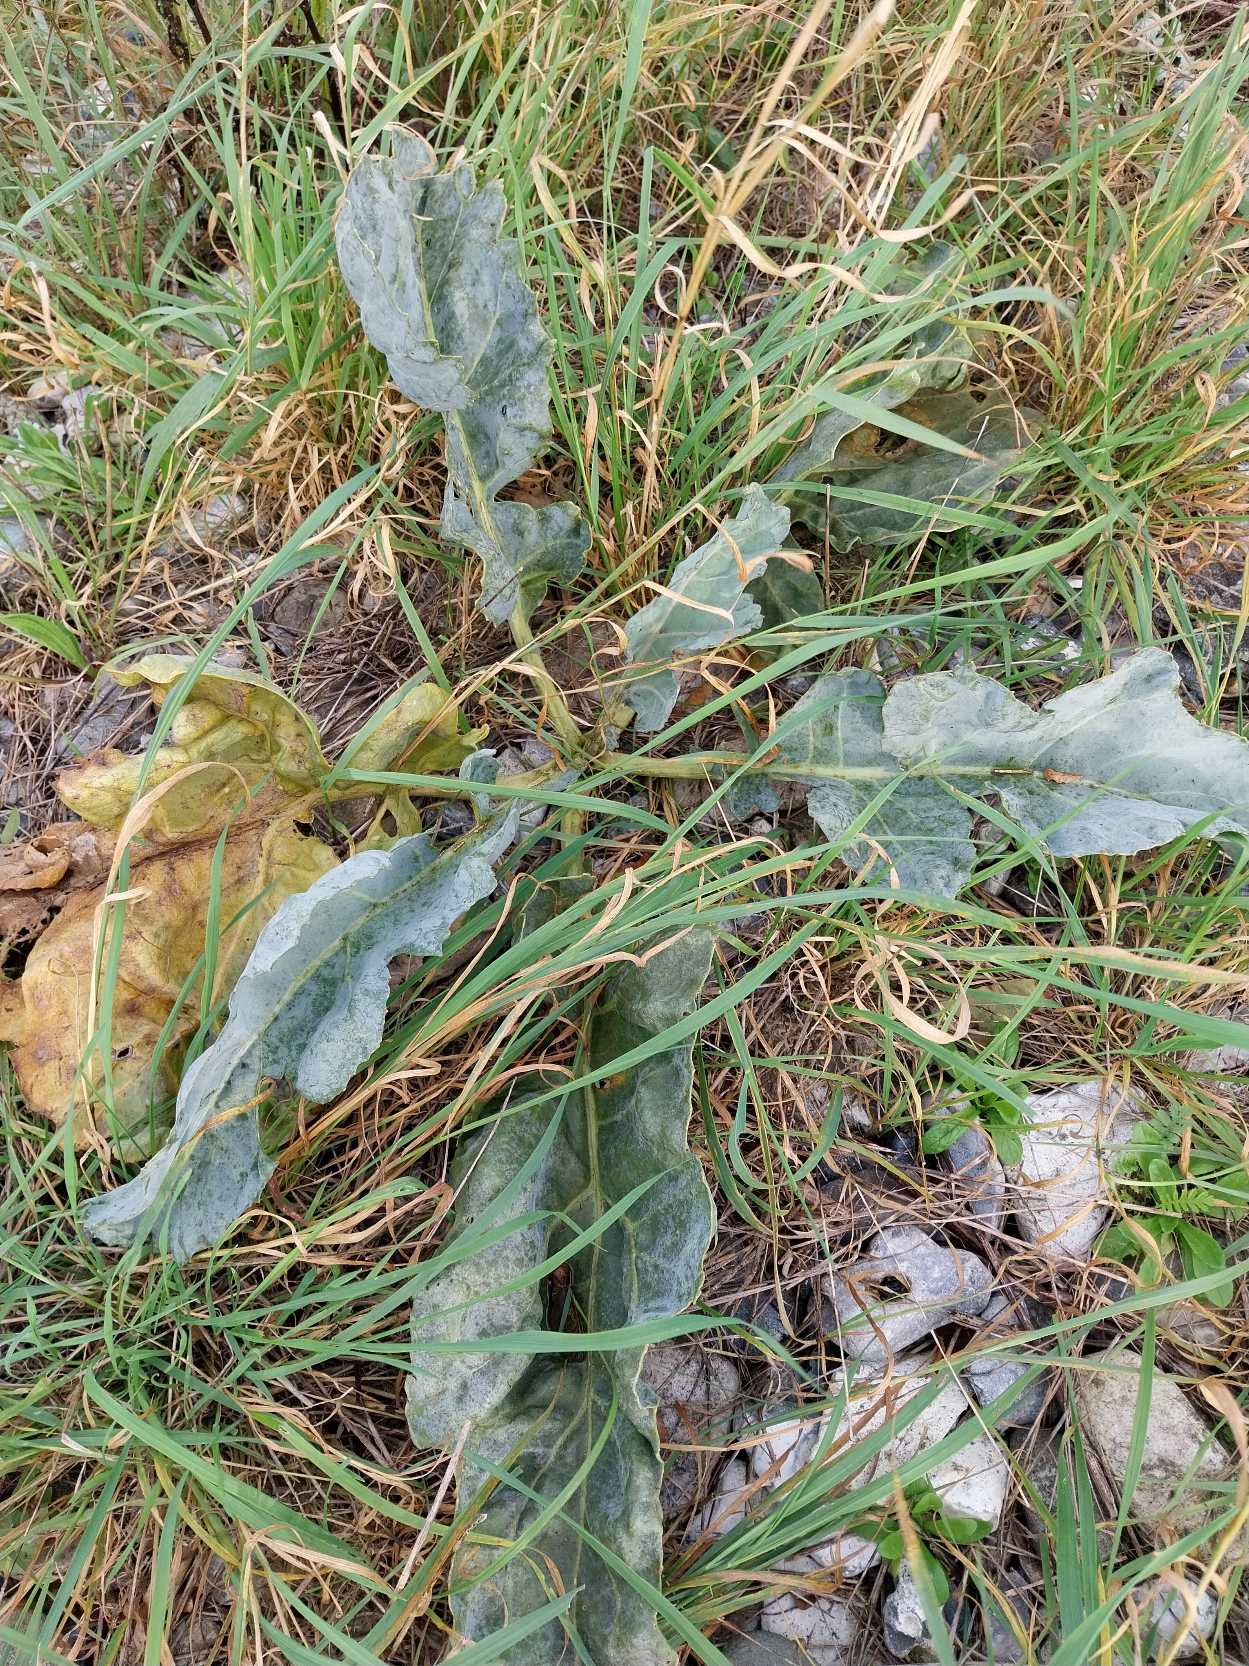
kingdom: Plantae
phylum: Tracheophyta
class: Magnoliopsida
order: Brassicales
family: Brassicaceae
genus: Crambe
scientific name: Crambe maritima
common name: Strandkål
